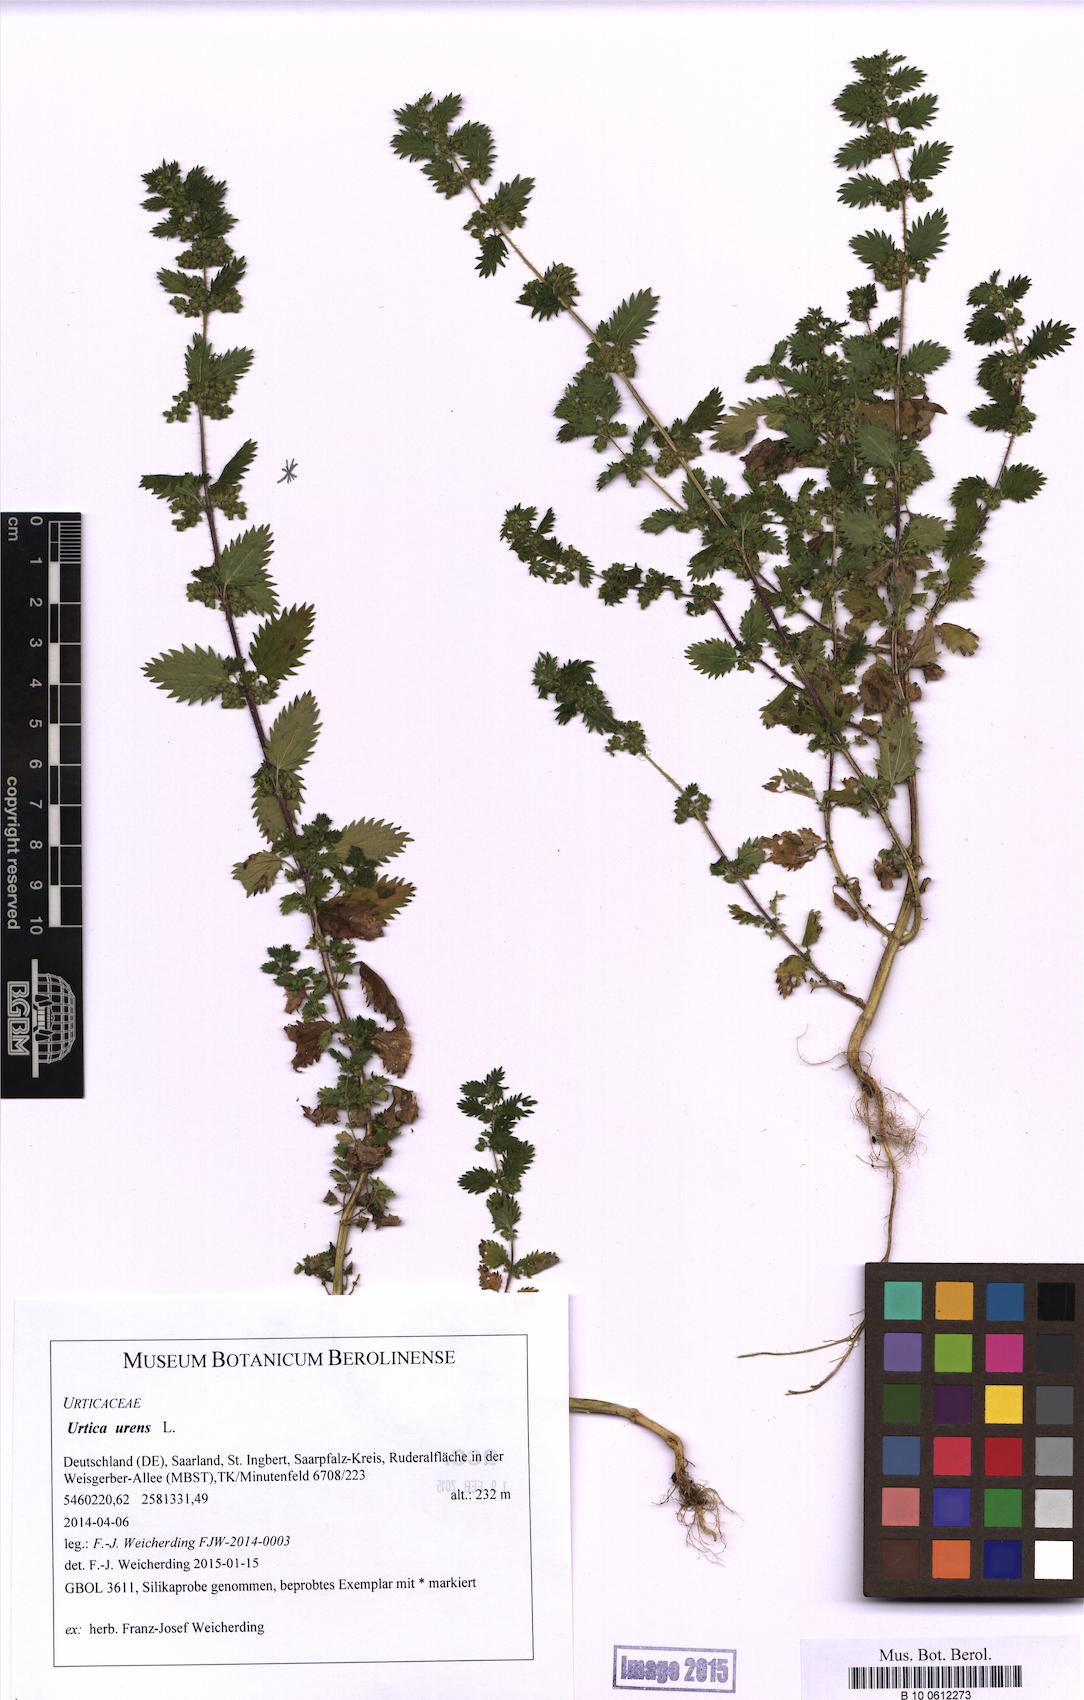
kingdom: Plantae
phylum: Tracheophyta
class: Magnoliopsida
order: Rosales
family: Urticaceae
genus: Urtica
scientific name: Urtica urens
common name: Dwarf nettle
